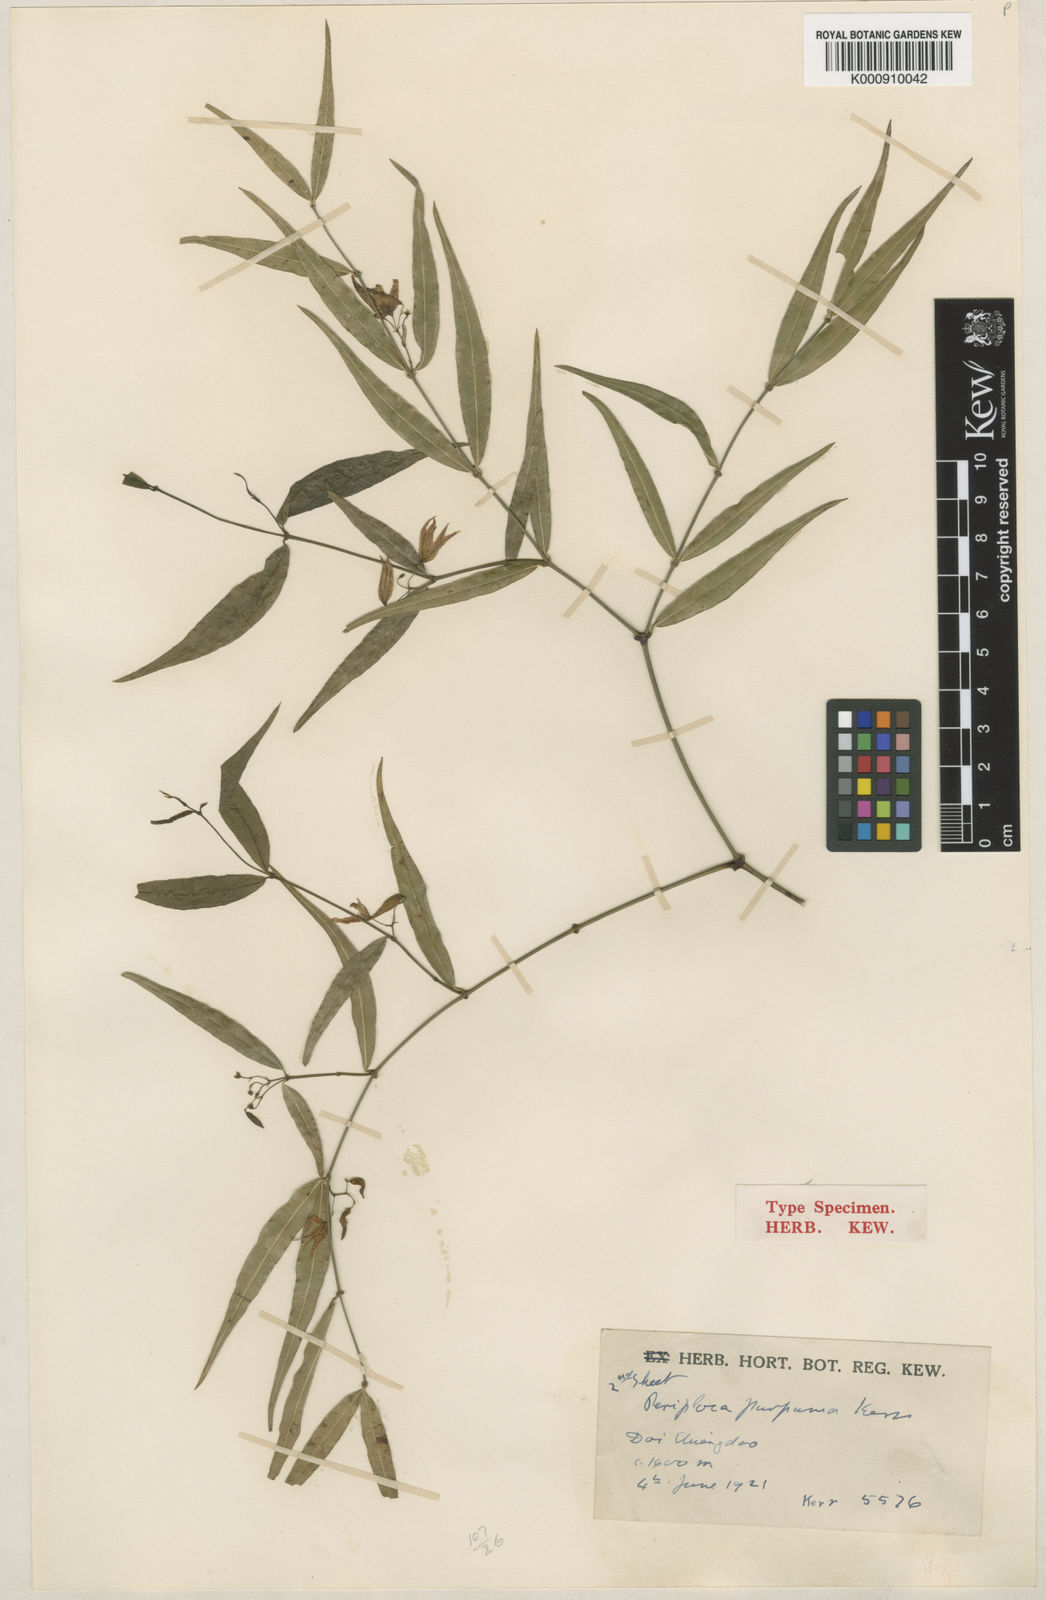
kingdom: Plantae
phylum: Tracheophyta
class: Magnoliopsida
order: Gentianales
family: Apocynaceae
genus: Periploca
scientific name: Periploca purpurea
